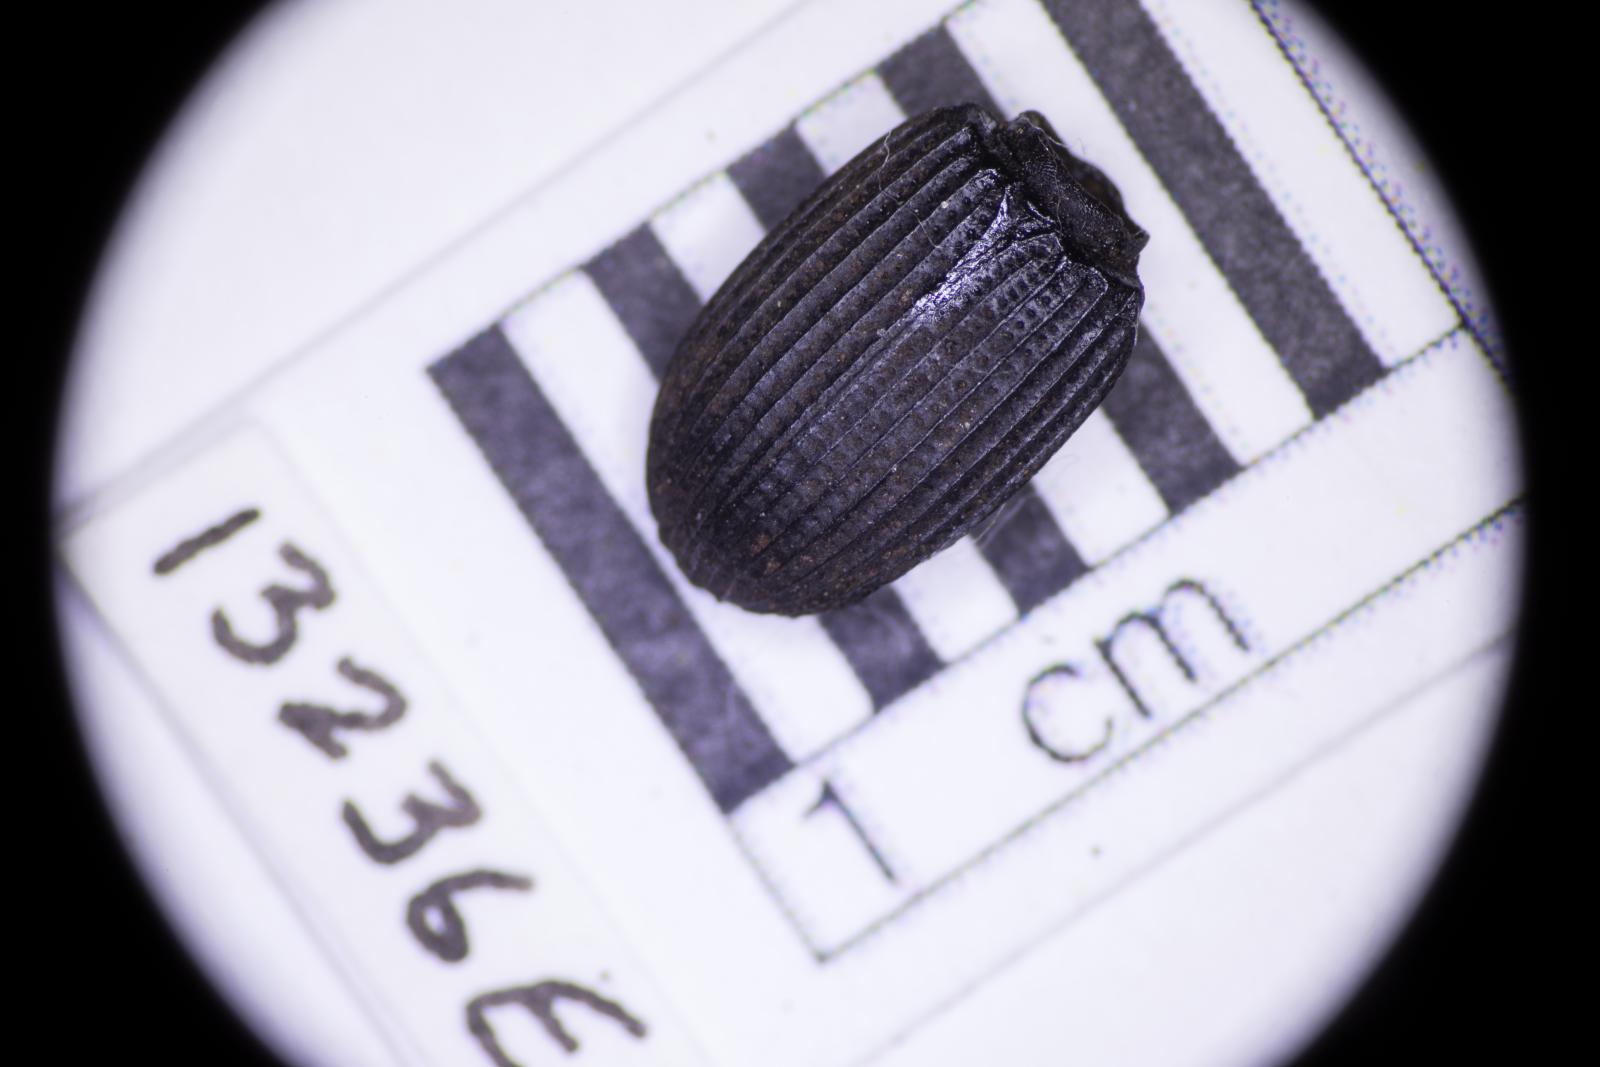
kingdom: Animalia
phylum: Arthropoda
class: Insecta
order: Coleoptera
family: Tenebrionidae
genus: Apsena
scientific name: Apsena laticornis
